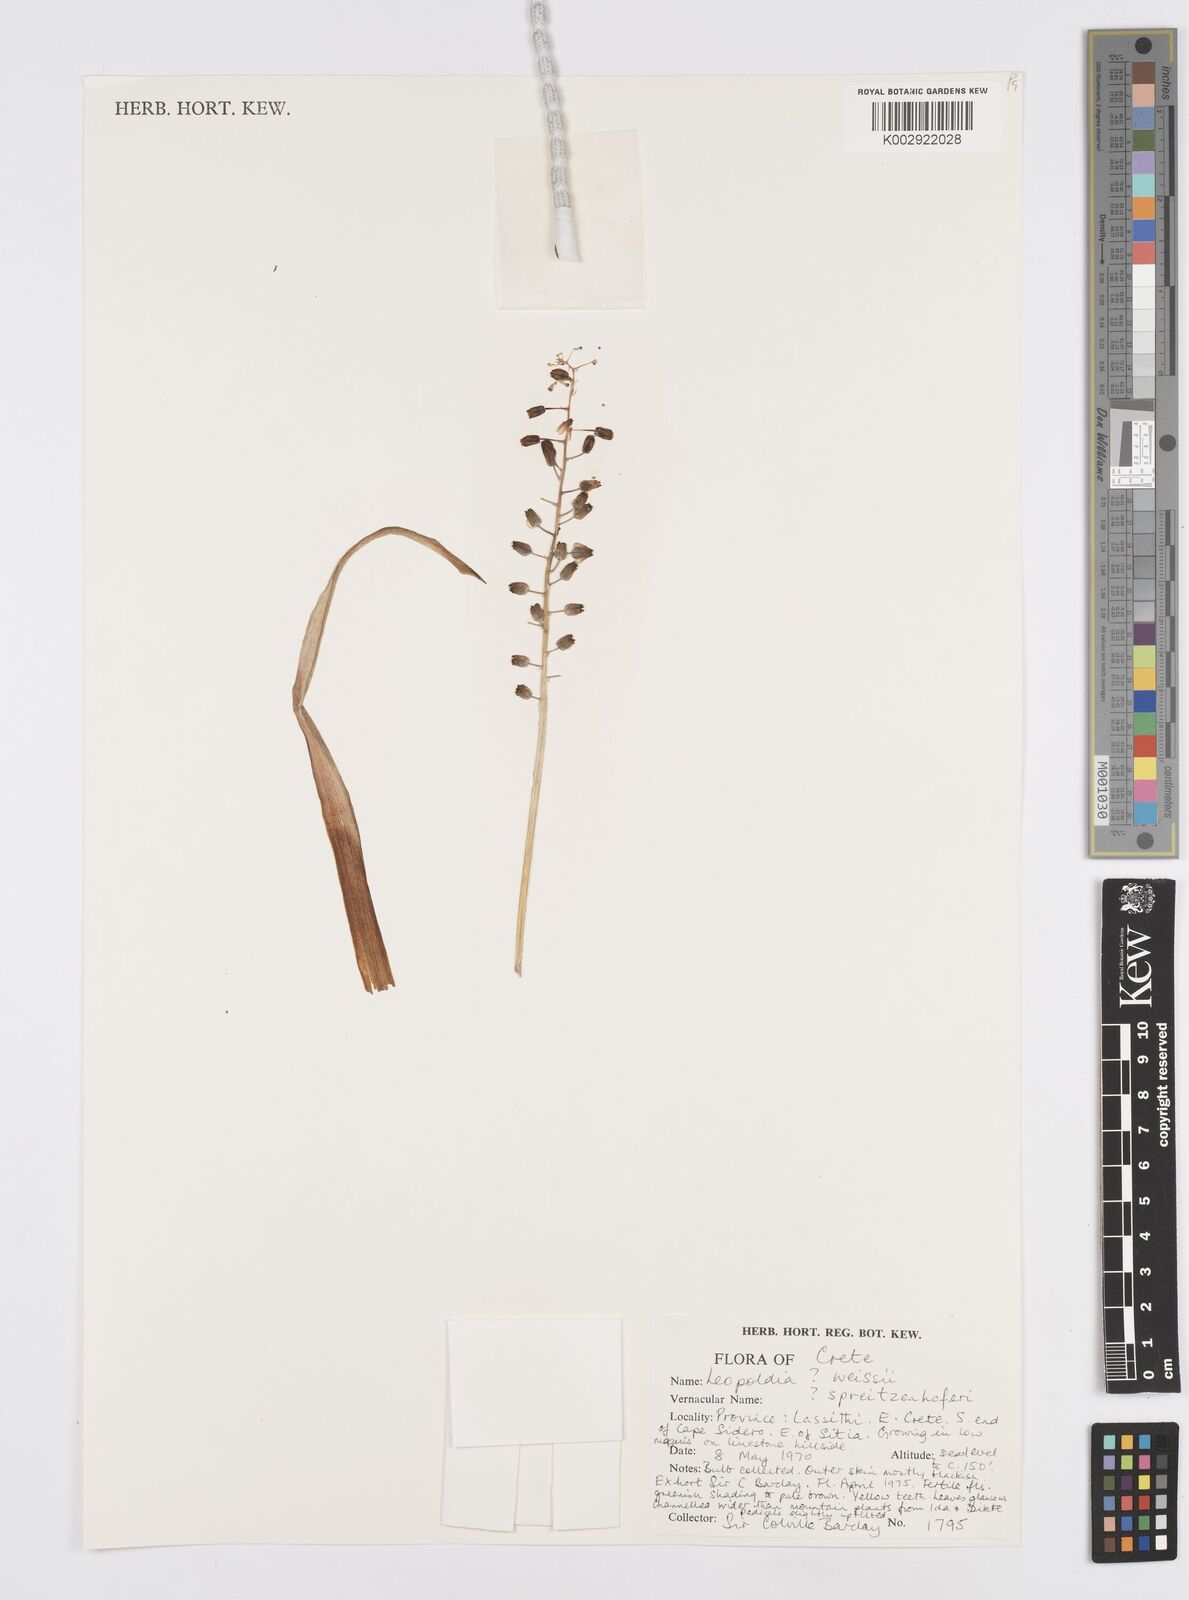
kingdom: Plantae
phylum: Tracheophyta
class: Liliopsida
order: Asparagales
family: Asparagaceae
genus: Muscari
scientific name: Muscari weissii
